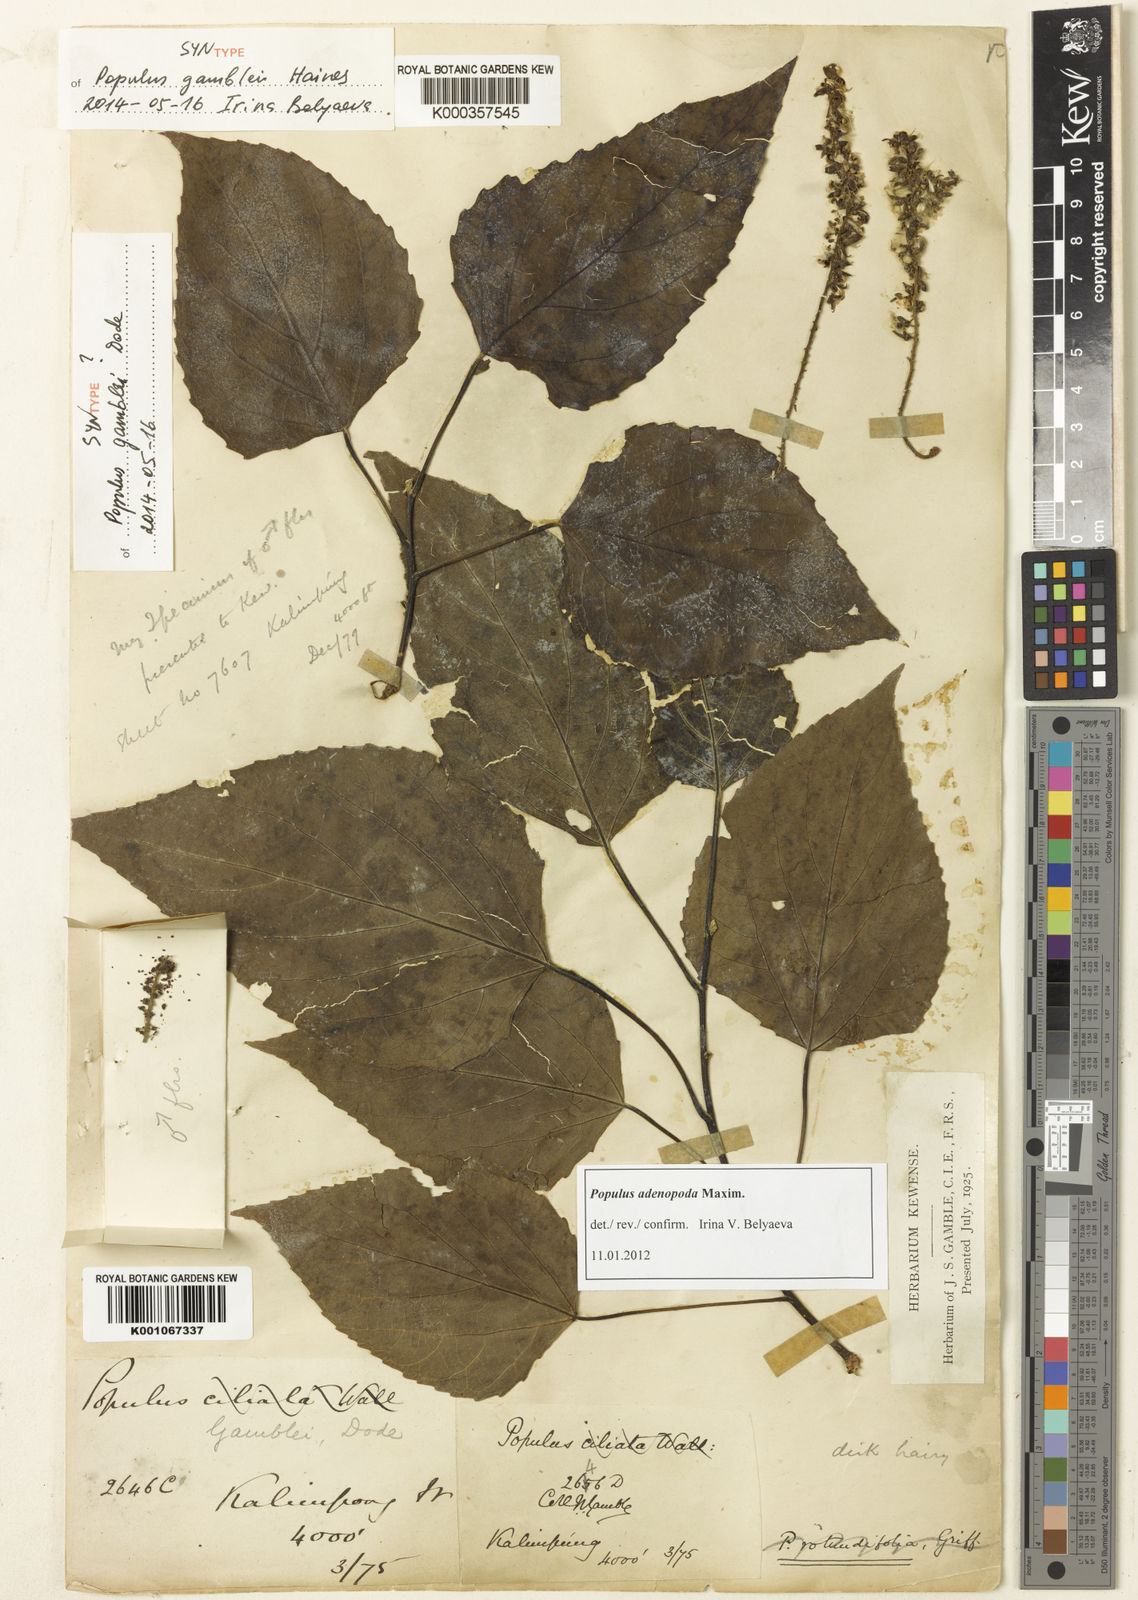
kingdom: Plantae
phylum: Tracheophyta
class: Magnoliopsida
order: Malpighiales
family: Salicaceae
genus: Populus
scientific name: Populus gamblei
